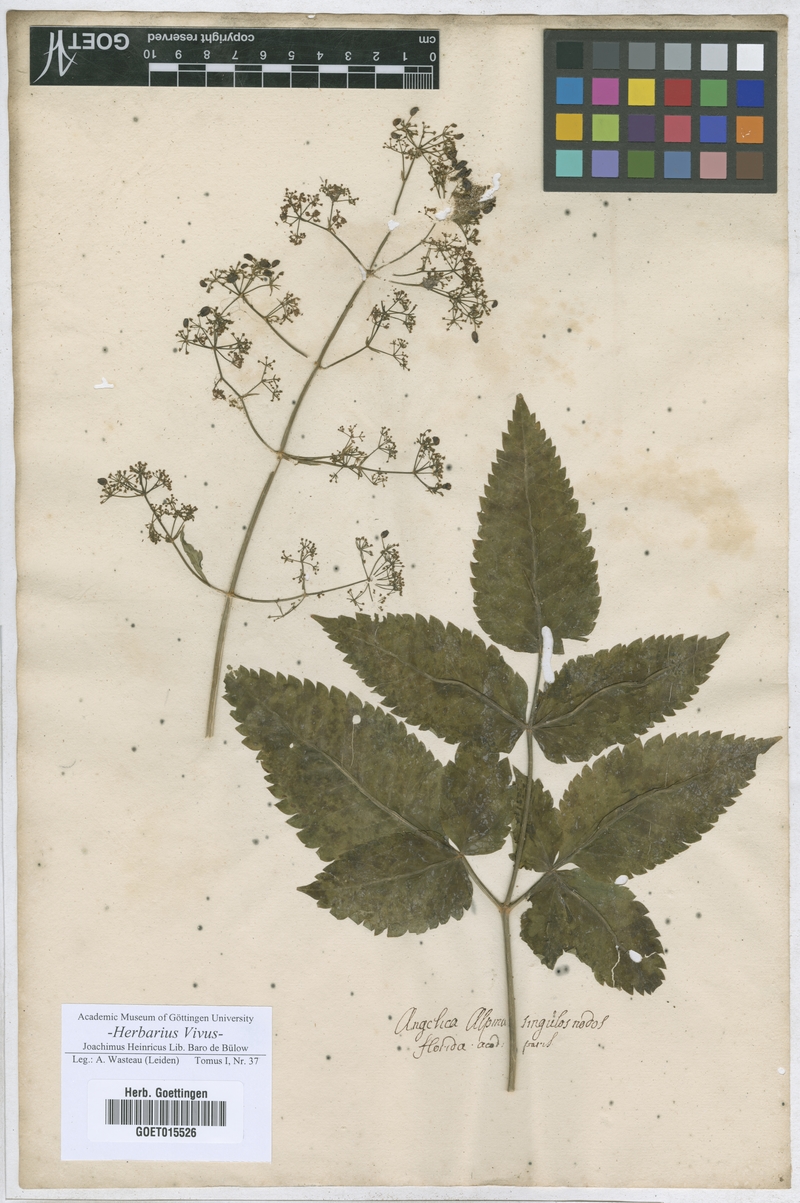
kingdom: Plantae
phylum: Tracheophyta
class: Magnoliopsida
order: Apiales
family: Apiaceae
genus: Angelica
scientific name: Angelica
